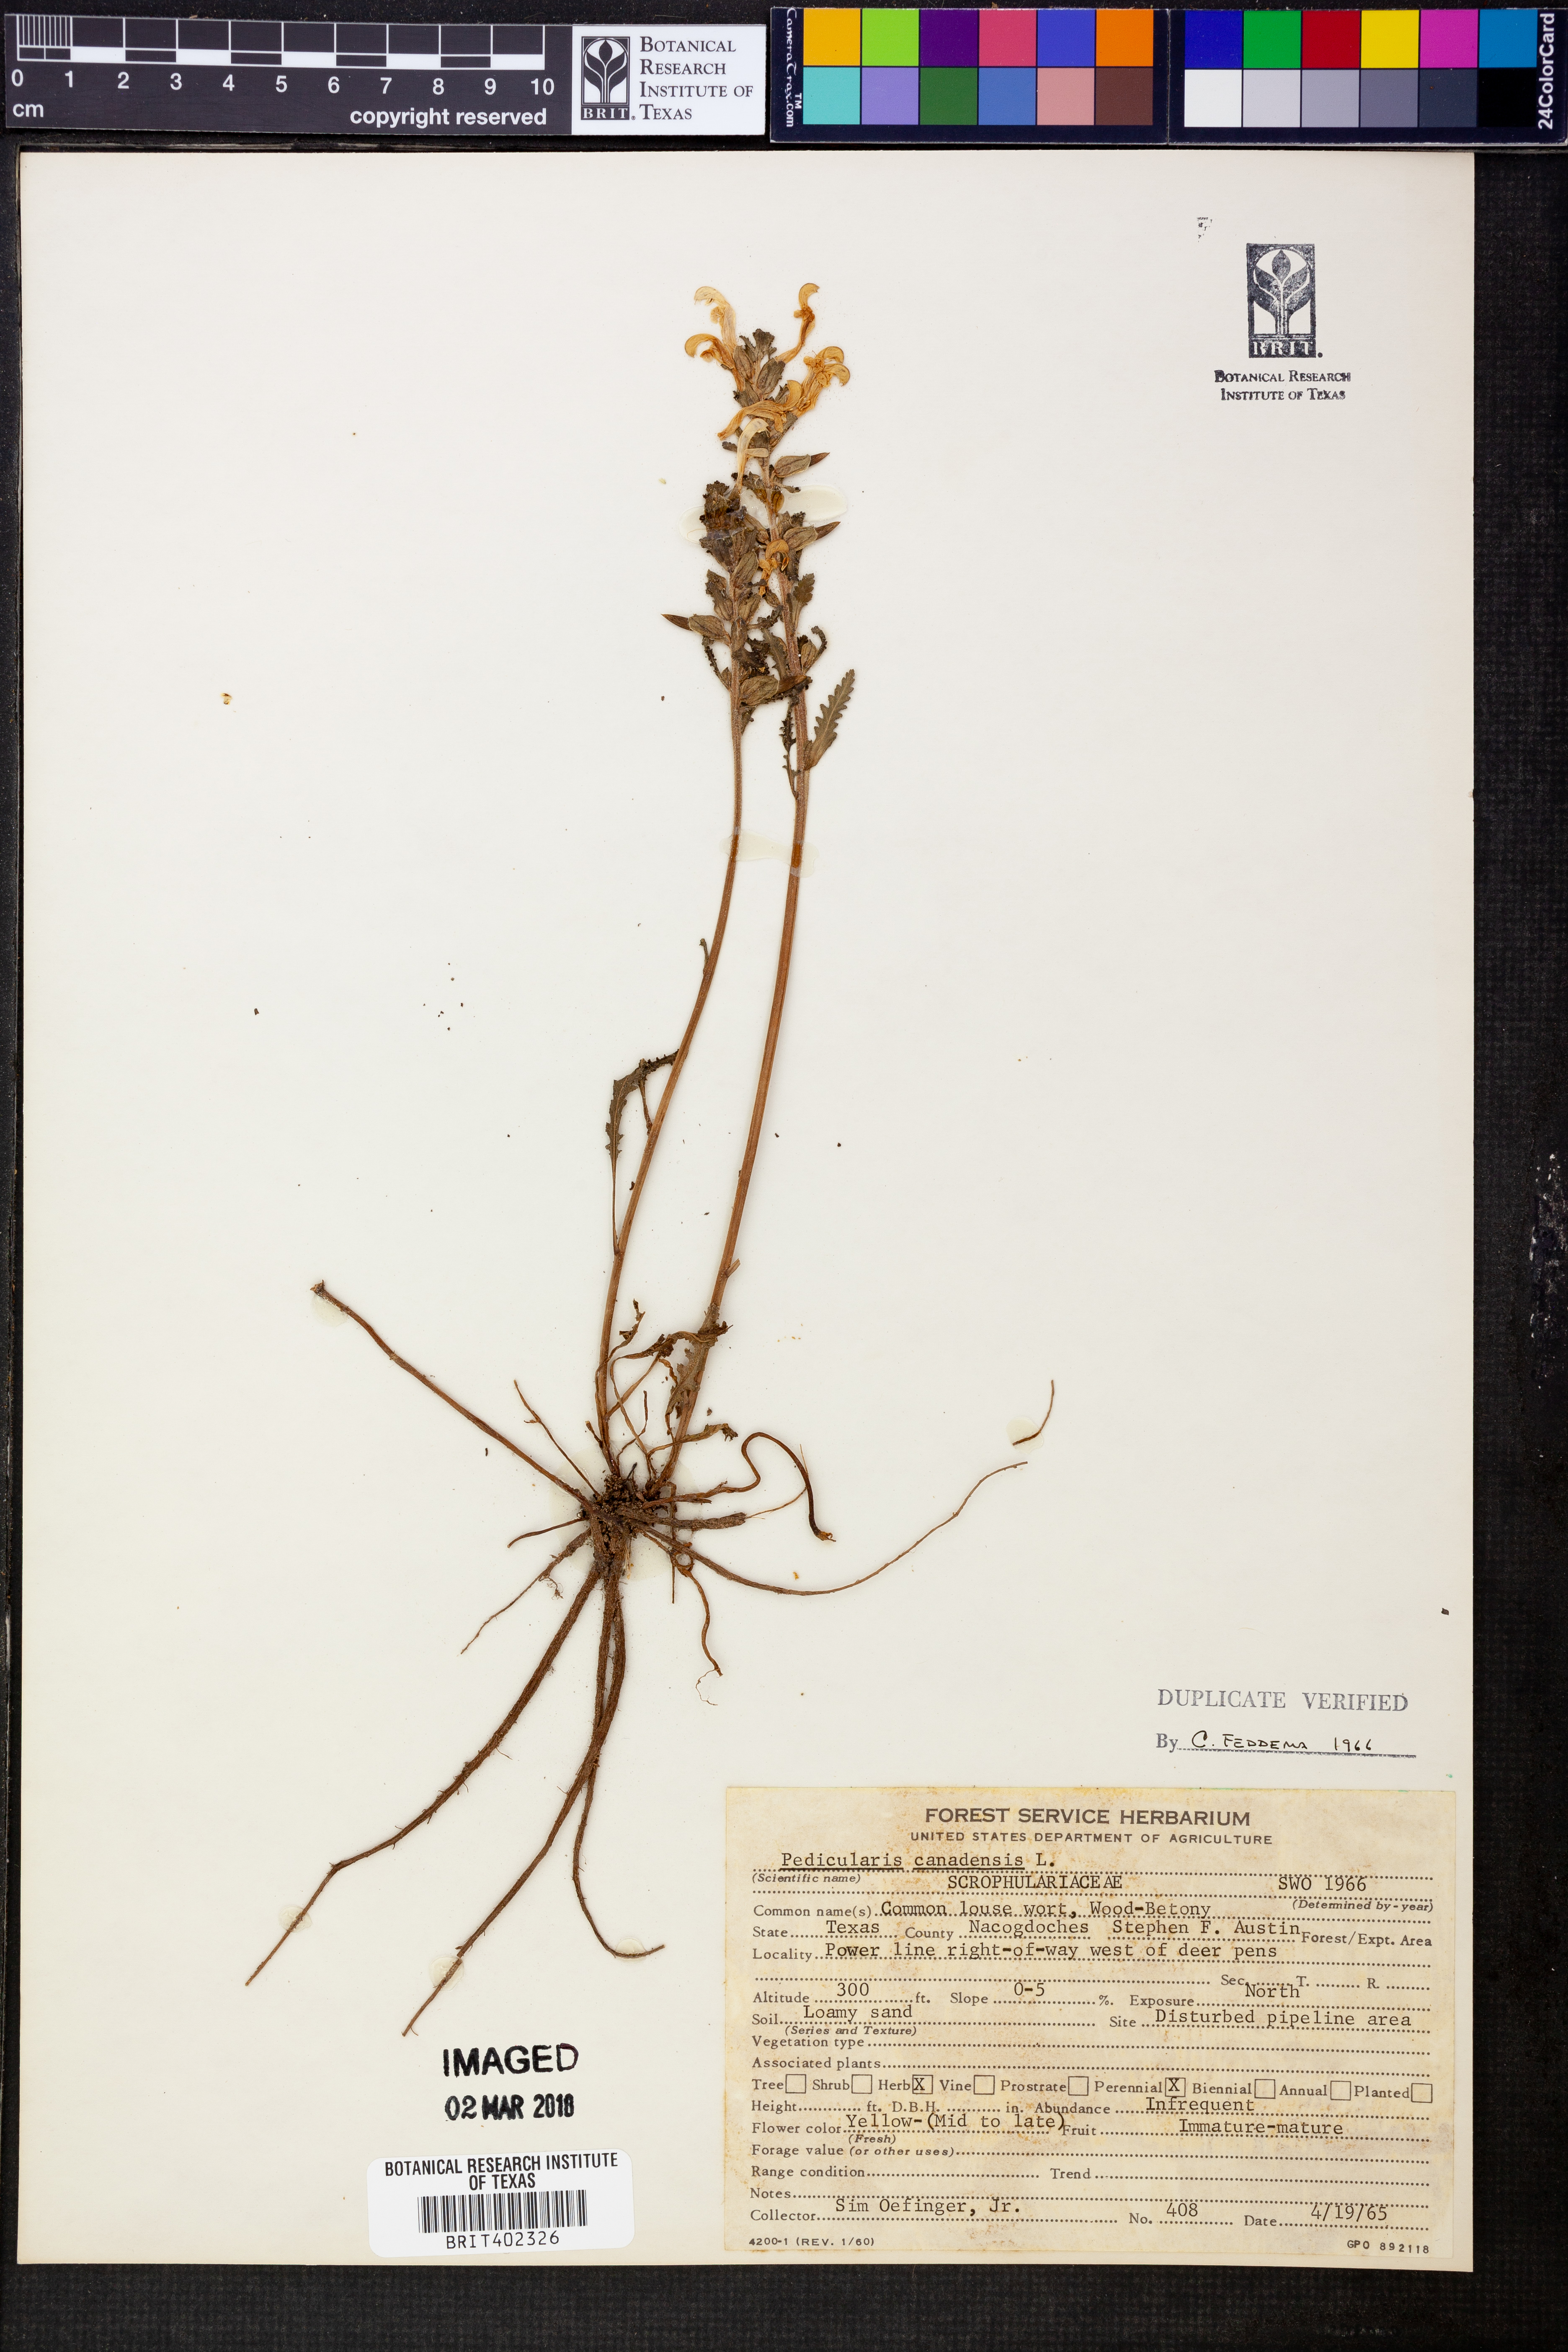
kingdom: Plantae
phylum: Tracheophyta
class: Magnoliopsida
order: Lamiales
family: Orobanchaceae
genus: Pedicularis
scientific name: Pedicularis canadensis
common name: Early lousewort
